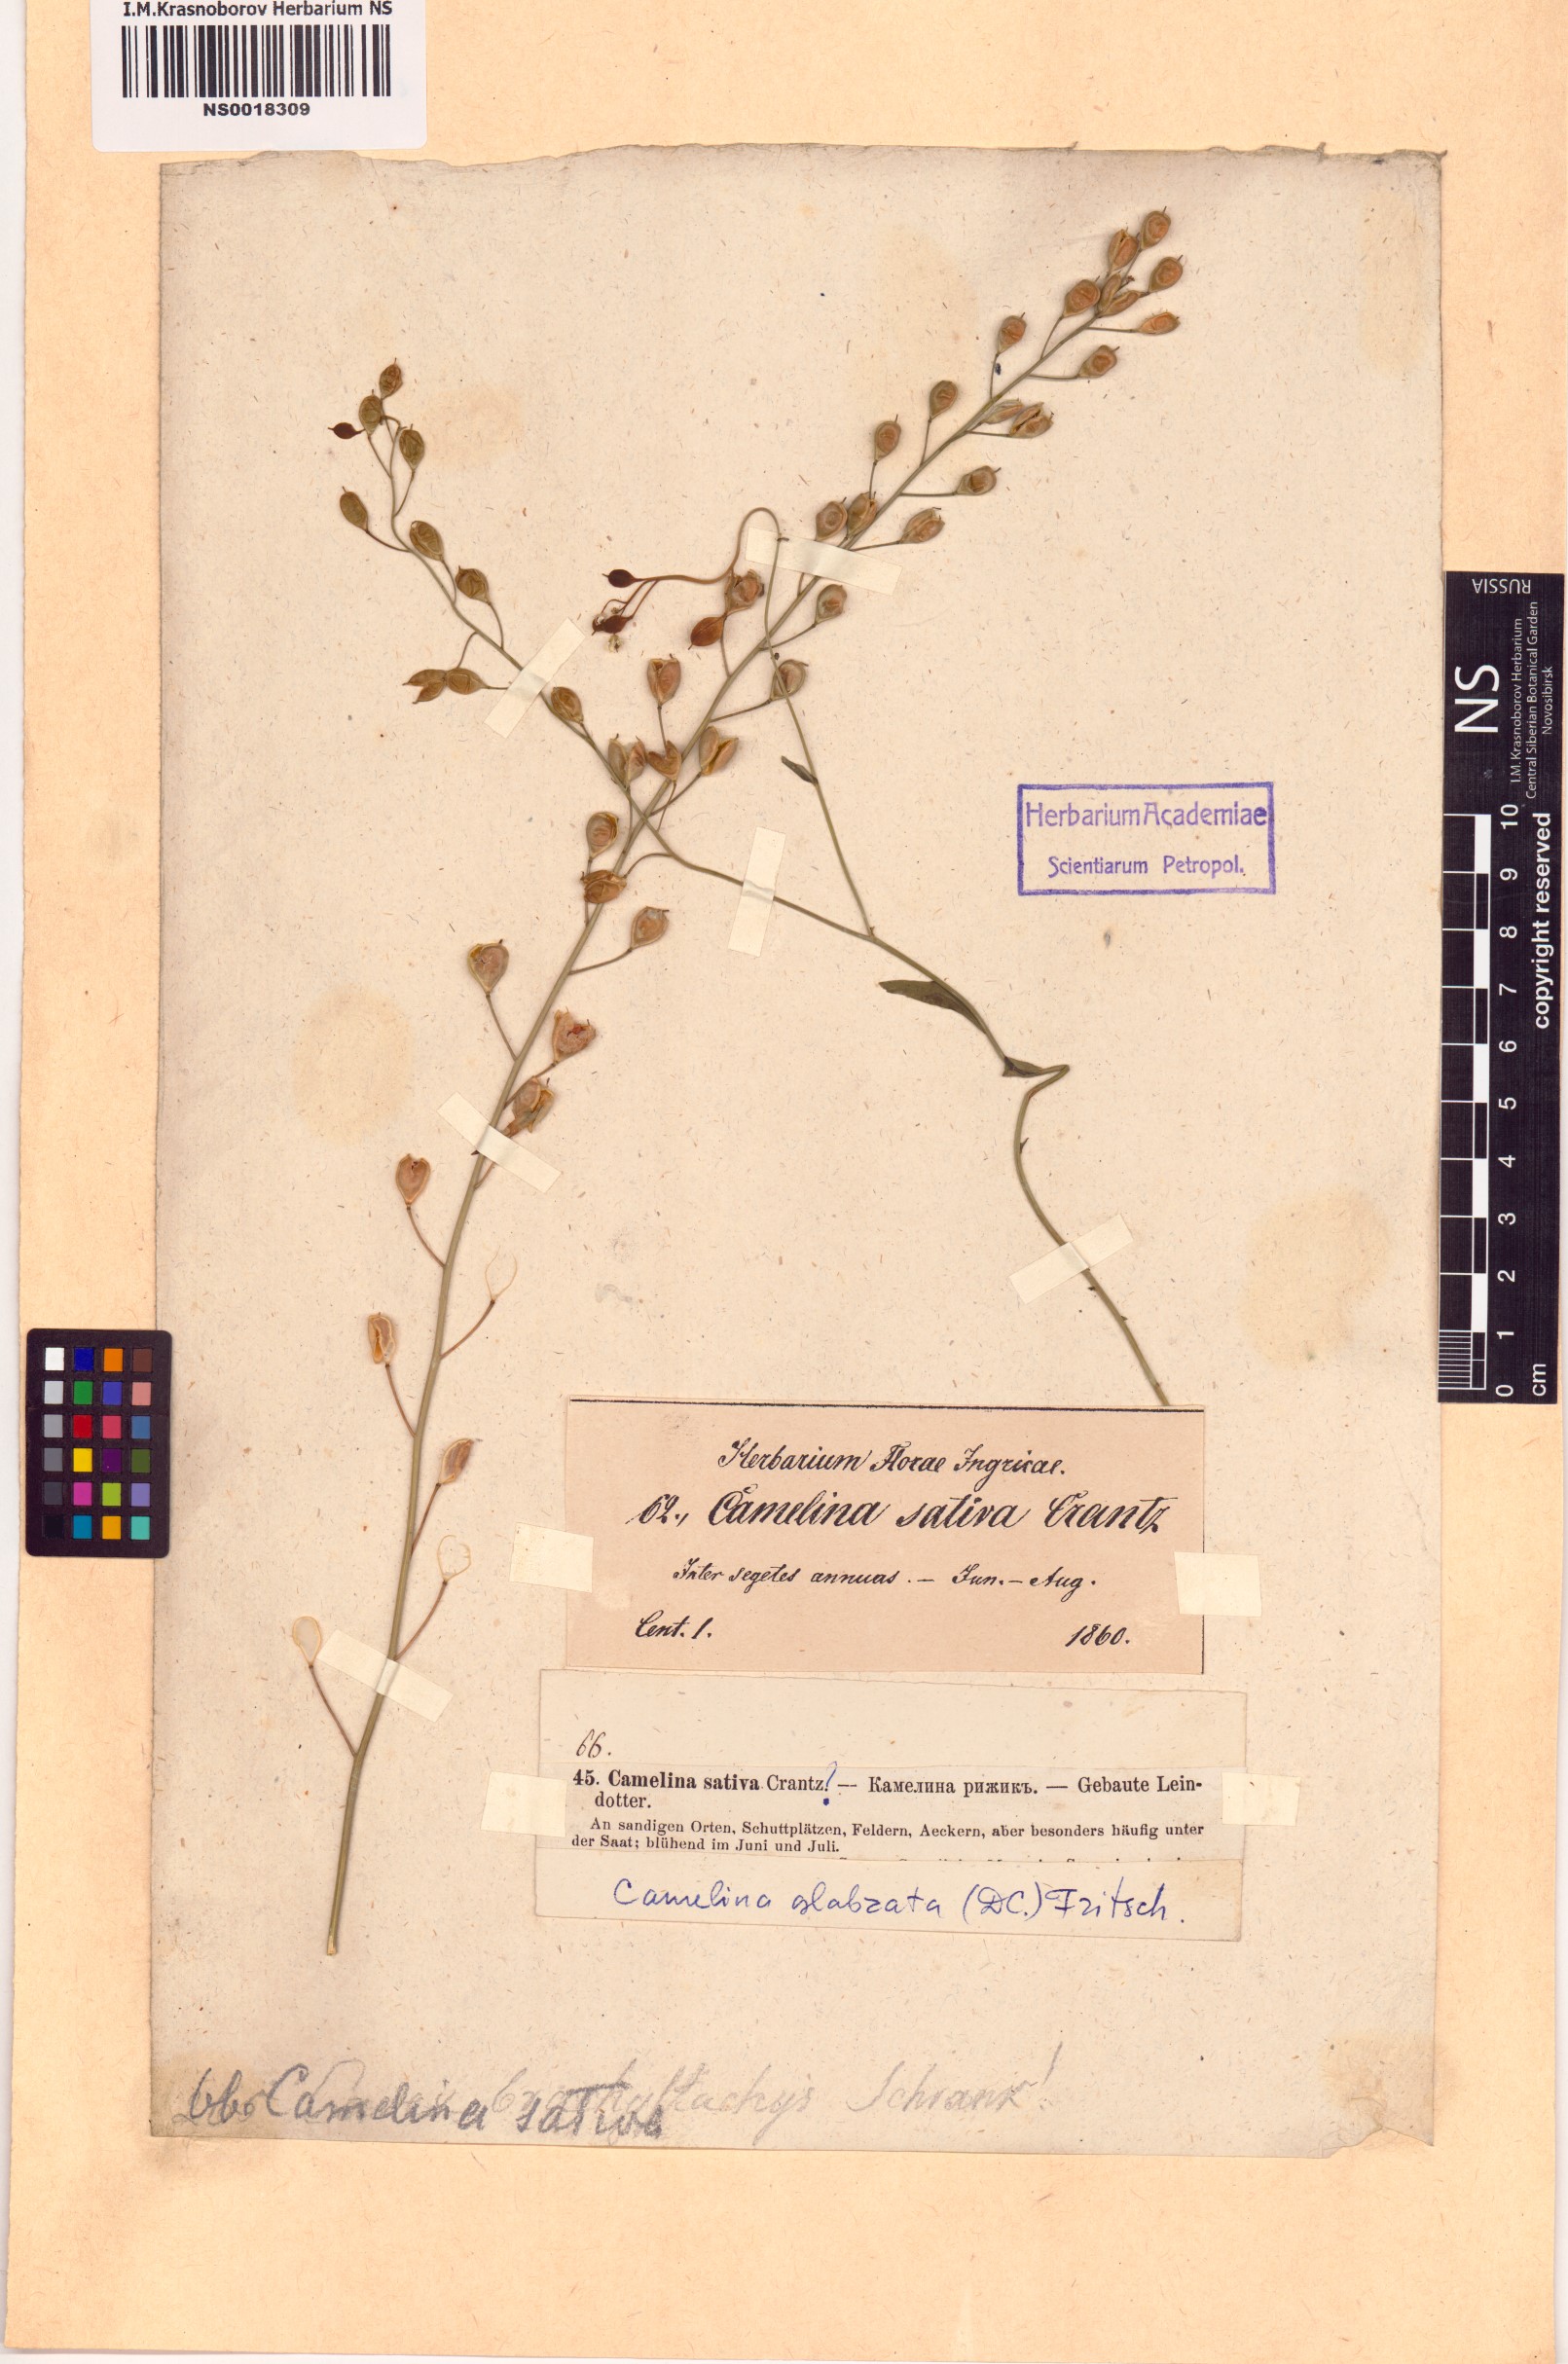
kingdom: Plantae
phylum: Tracheophyta
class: Magnoliopsida
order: Brassicales
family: Brassicaceae
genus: Camelina
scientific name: Camelina sativa
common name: Gold-of-pleasure
